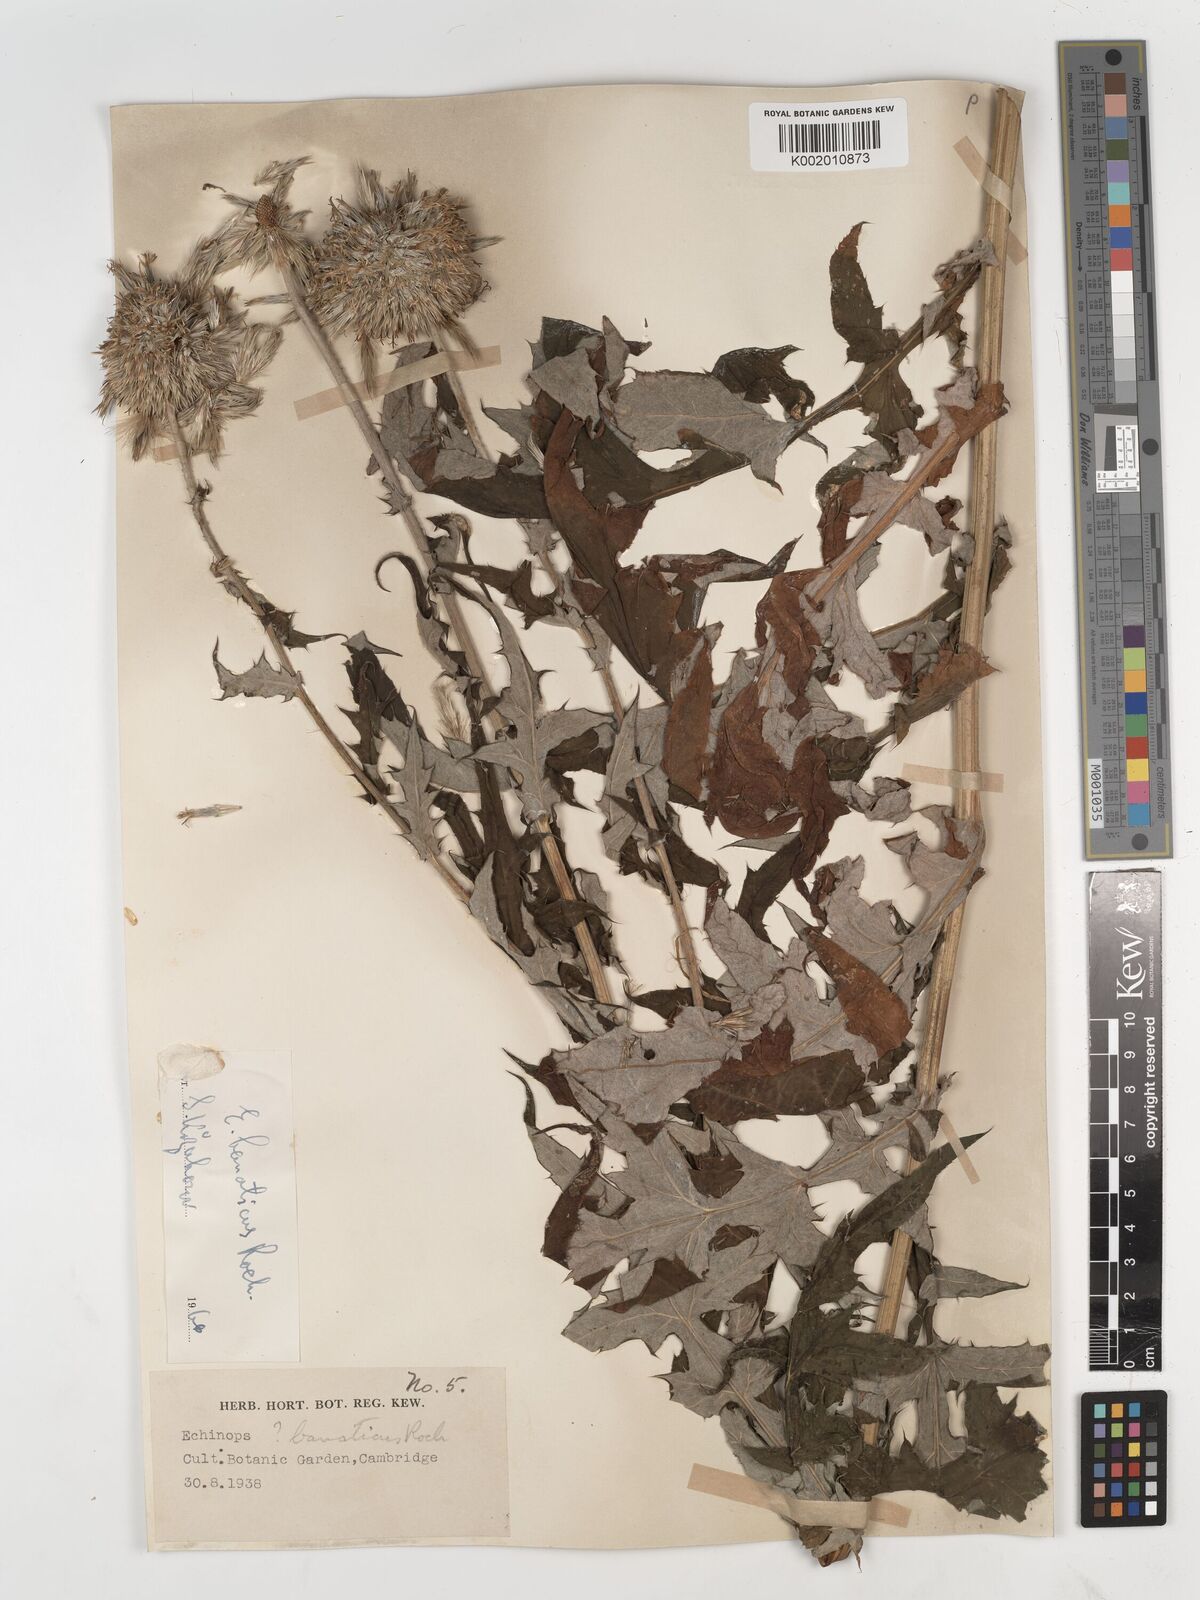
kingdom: Plantae
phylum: Tracheophyta
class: Magnoliopsida
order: Asterales
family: Asteraceae
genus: Echinops
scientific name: Echinops bannaticus
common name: Blue globe-thistle
